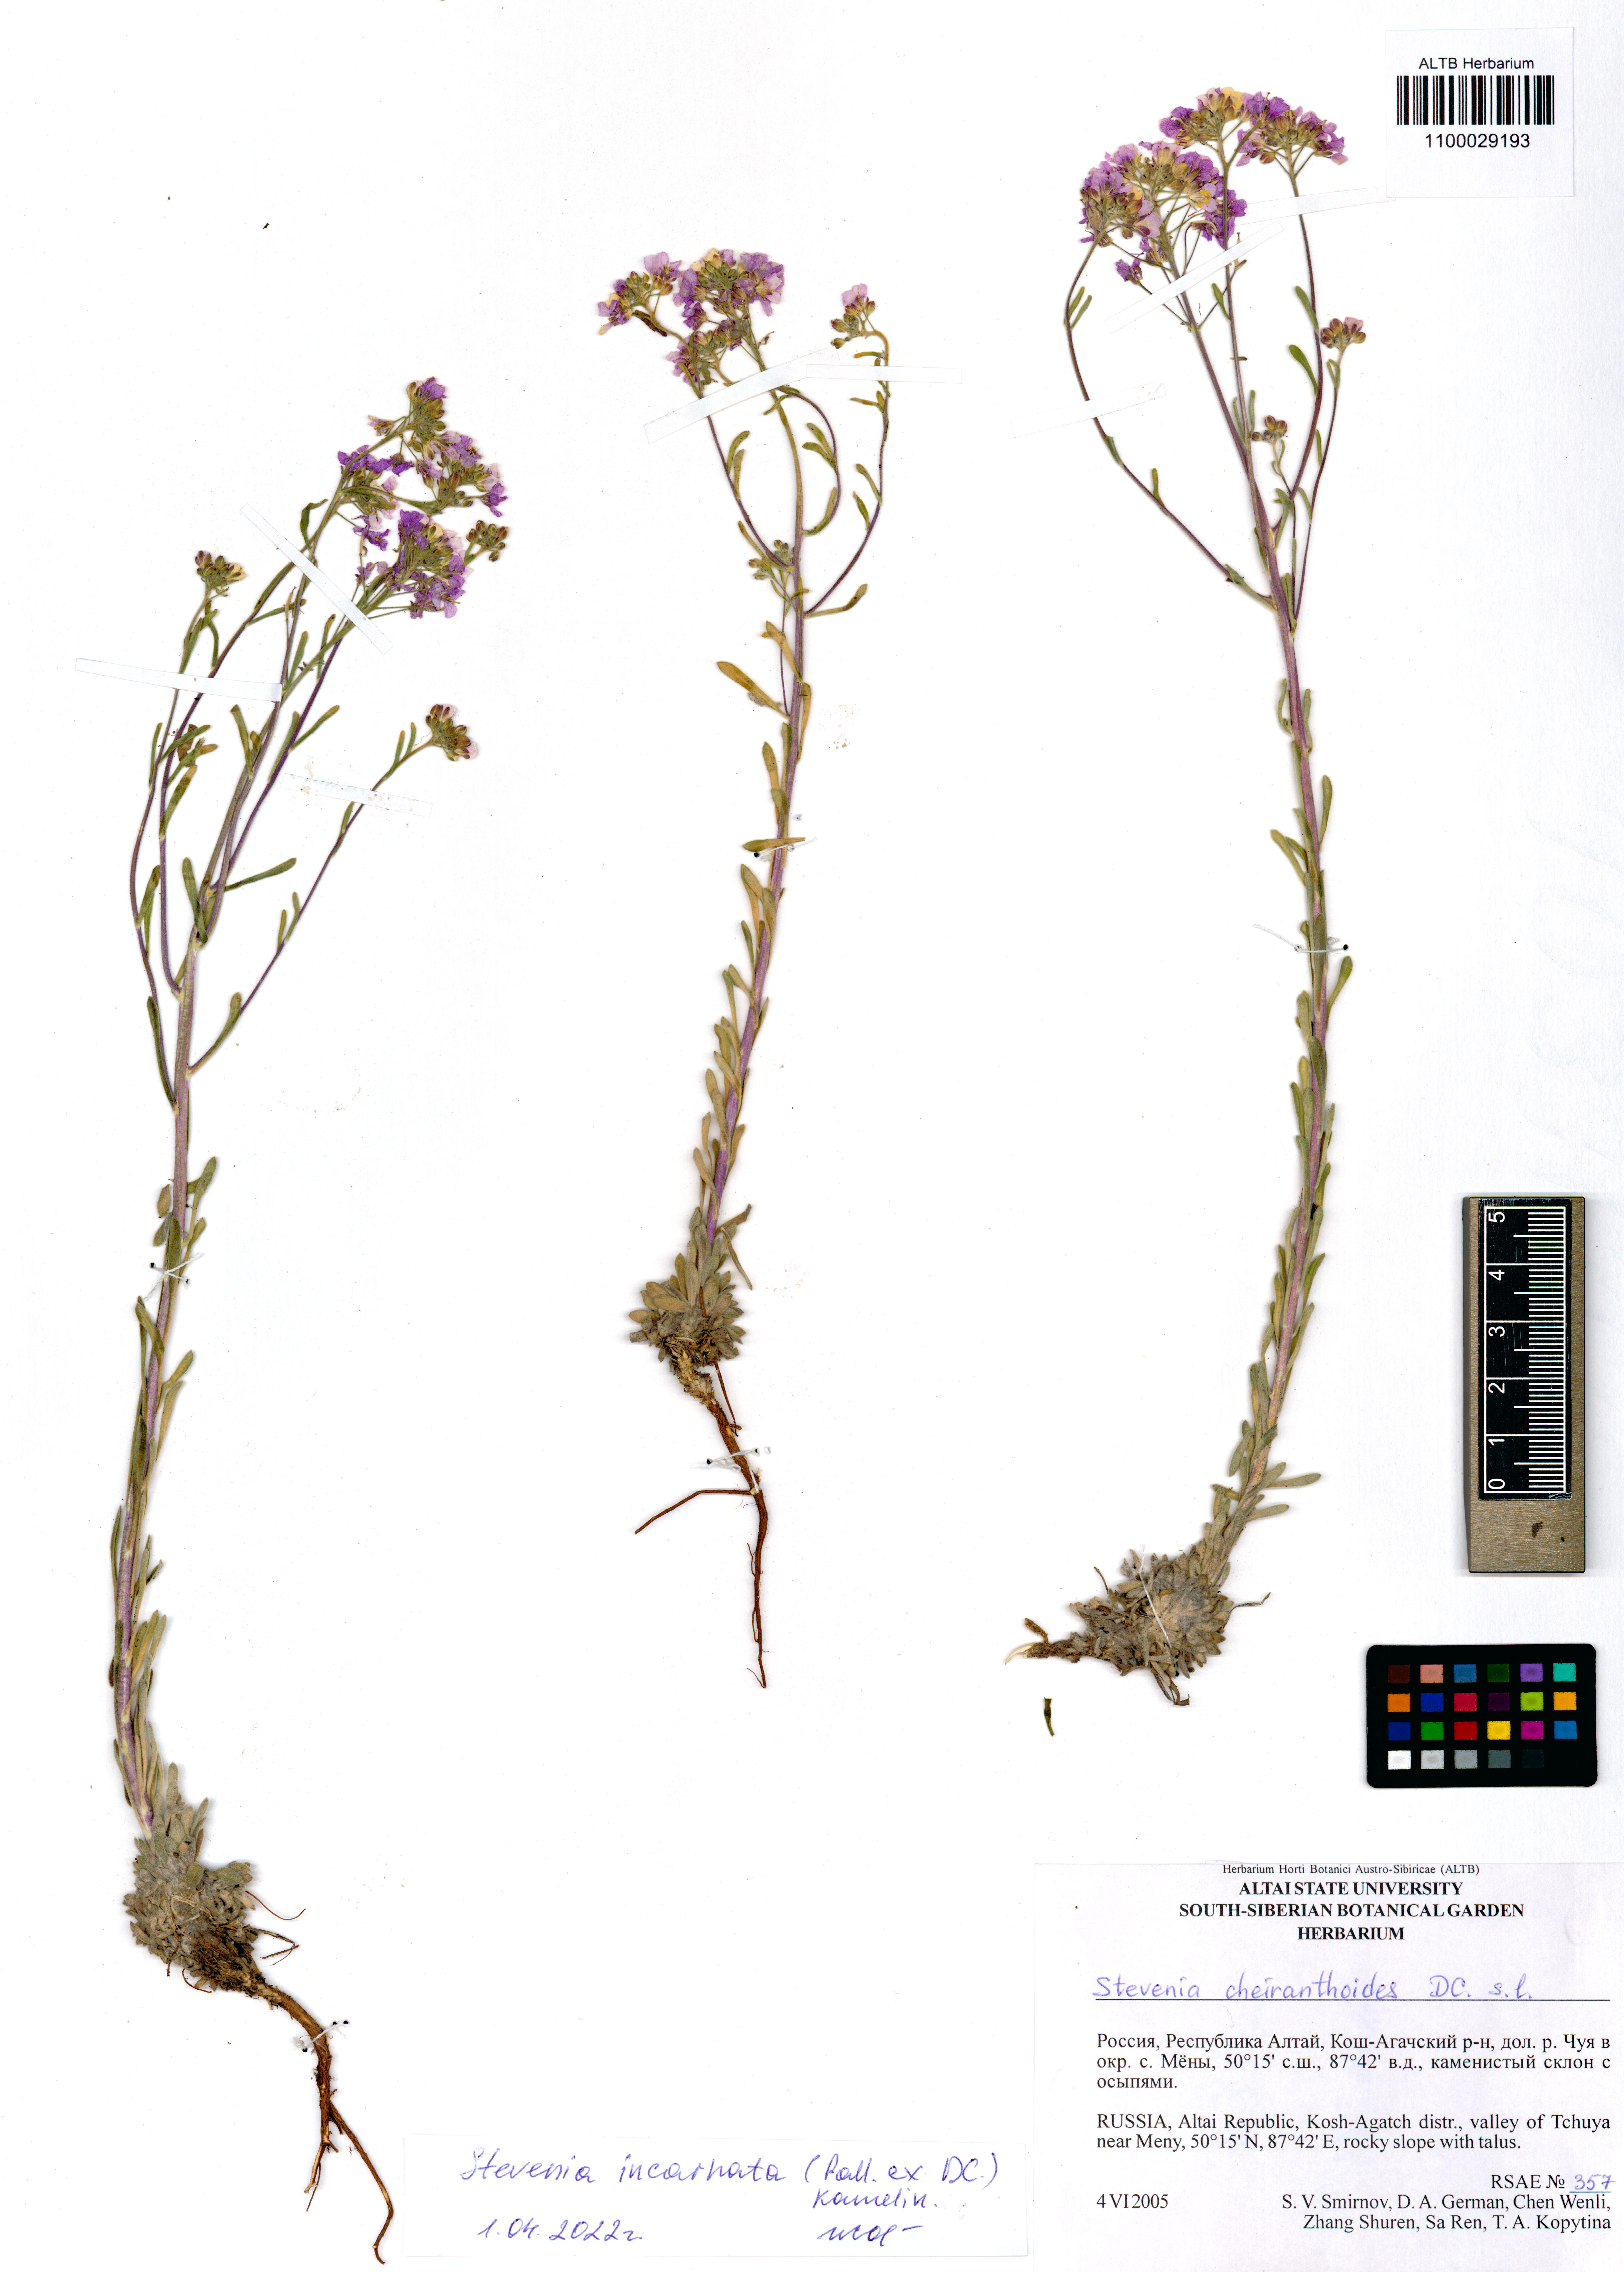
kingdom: Plantae
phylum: Tracheophyta
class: Magnoliopsida
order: Brassicales
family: Brassicaceae
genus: Stevenia
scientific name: Stevenia incarnata
